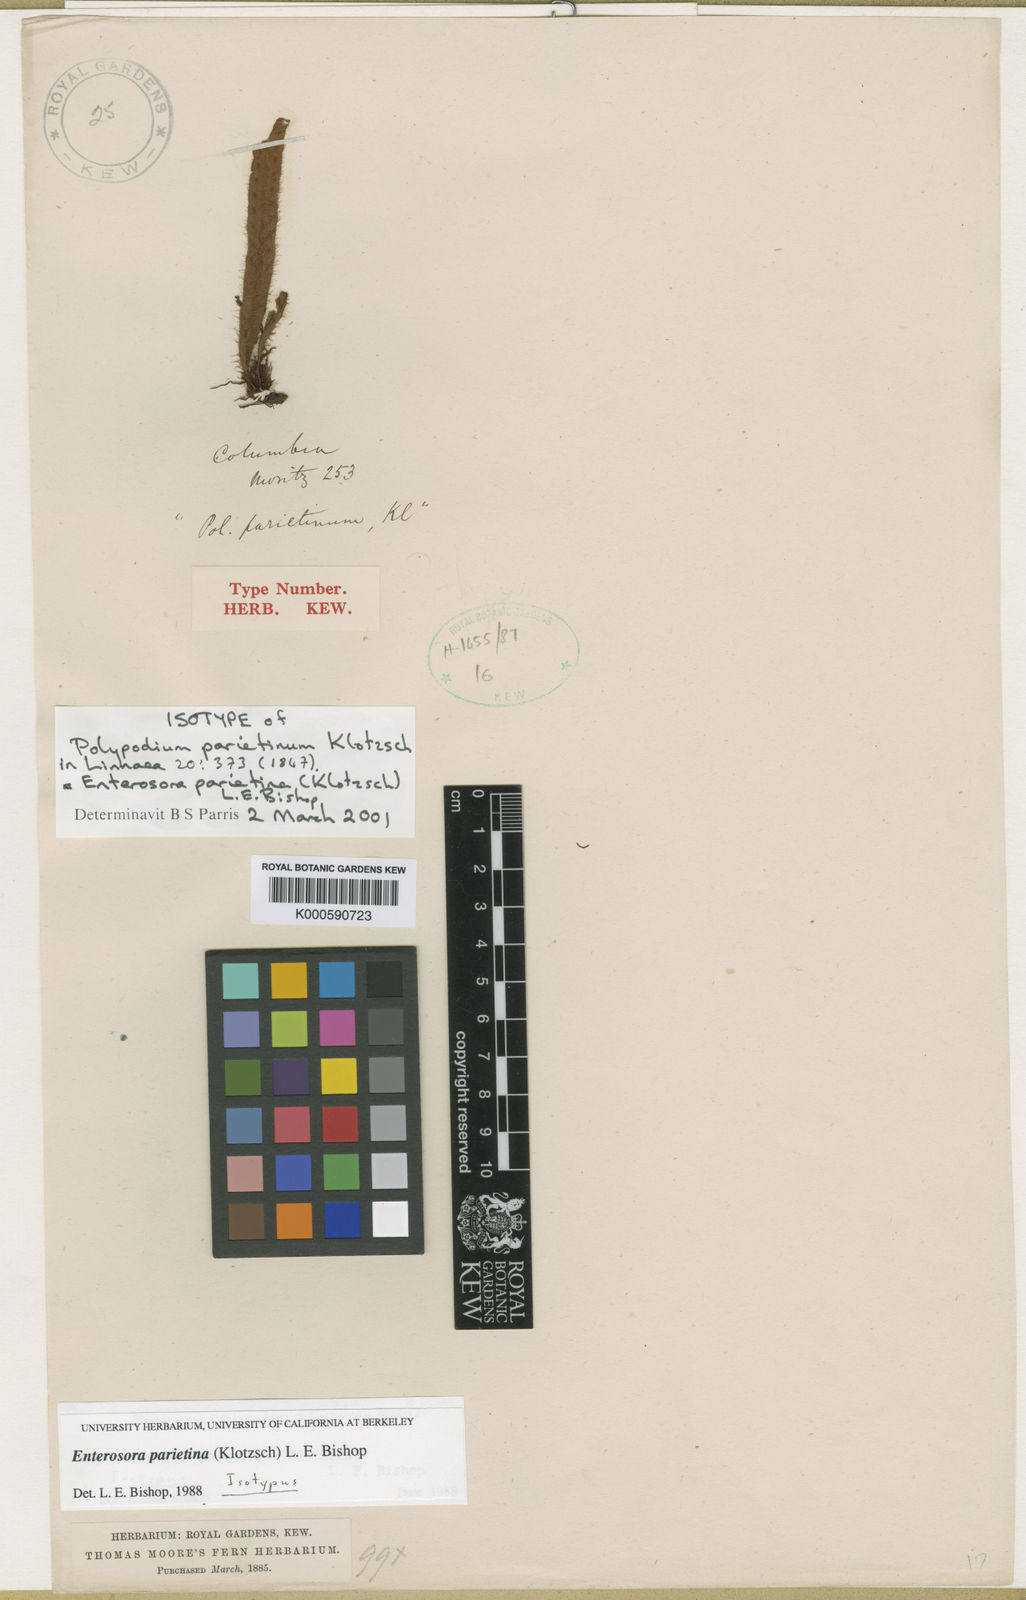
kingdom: Plantae
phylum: Tracheophyta
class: Polypodiopsida
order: Polypodiales
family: Polypodiaceae
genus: Parrisia
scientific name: Parrisia parietina
